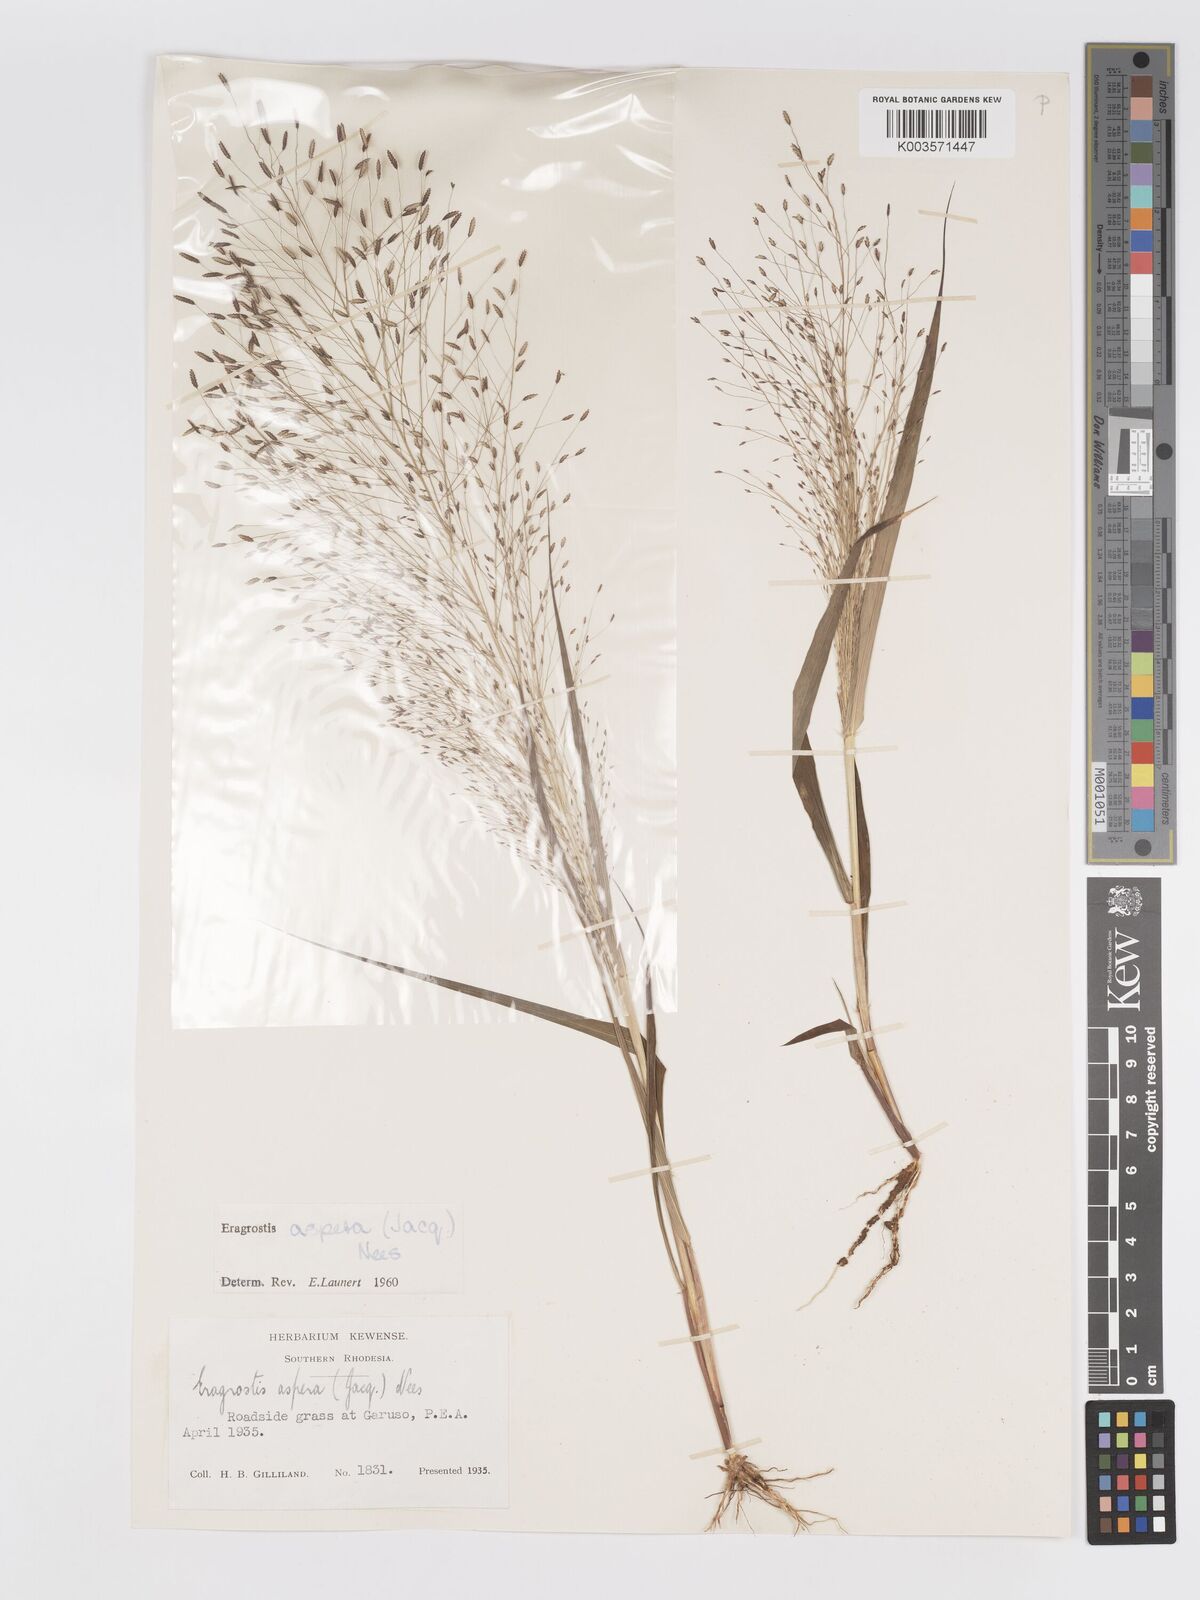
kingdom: Plantae
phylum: Tracheophyta
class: Liliopsida
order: Poales
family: Poaceae
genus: Eragrostis
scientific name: Eragrostis aspera
